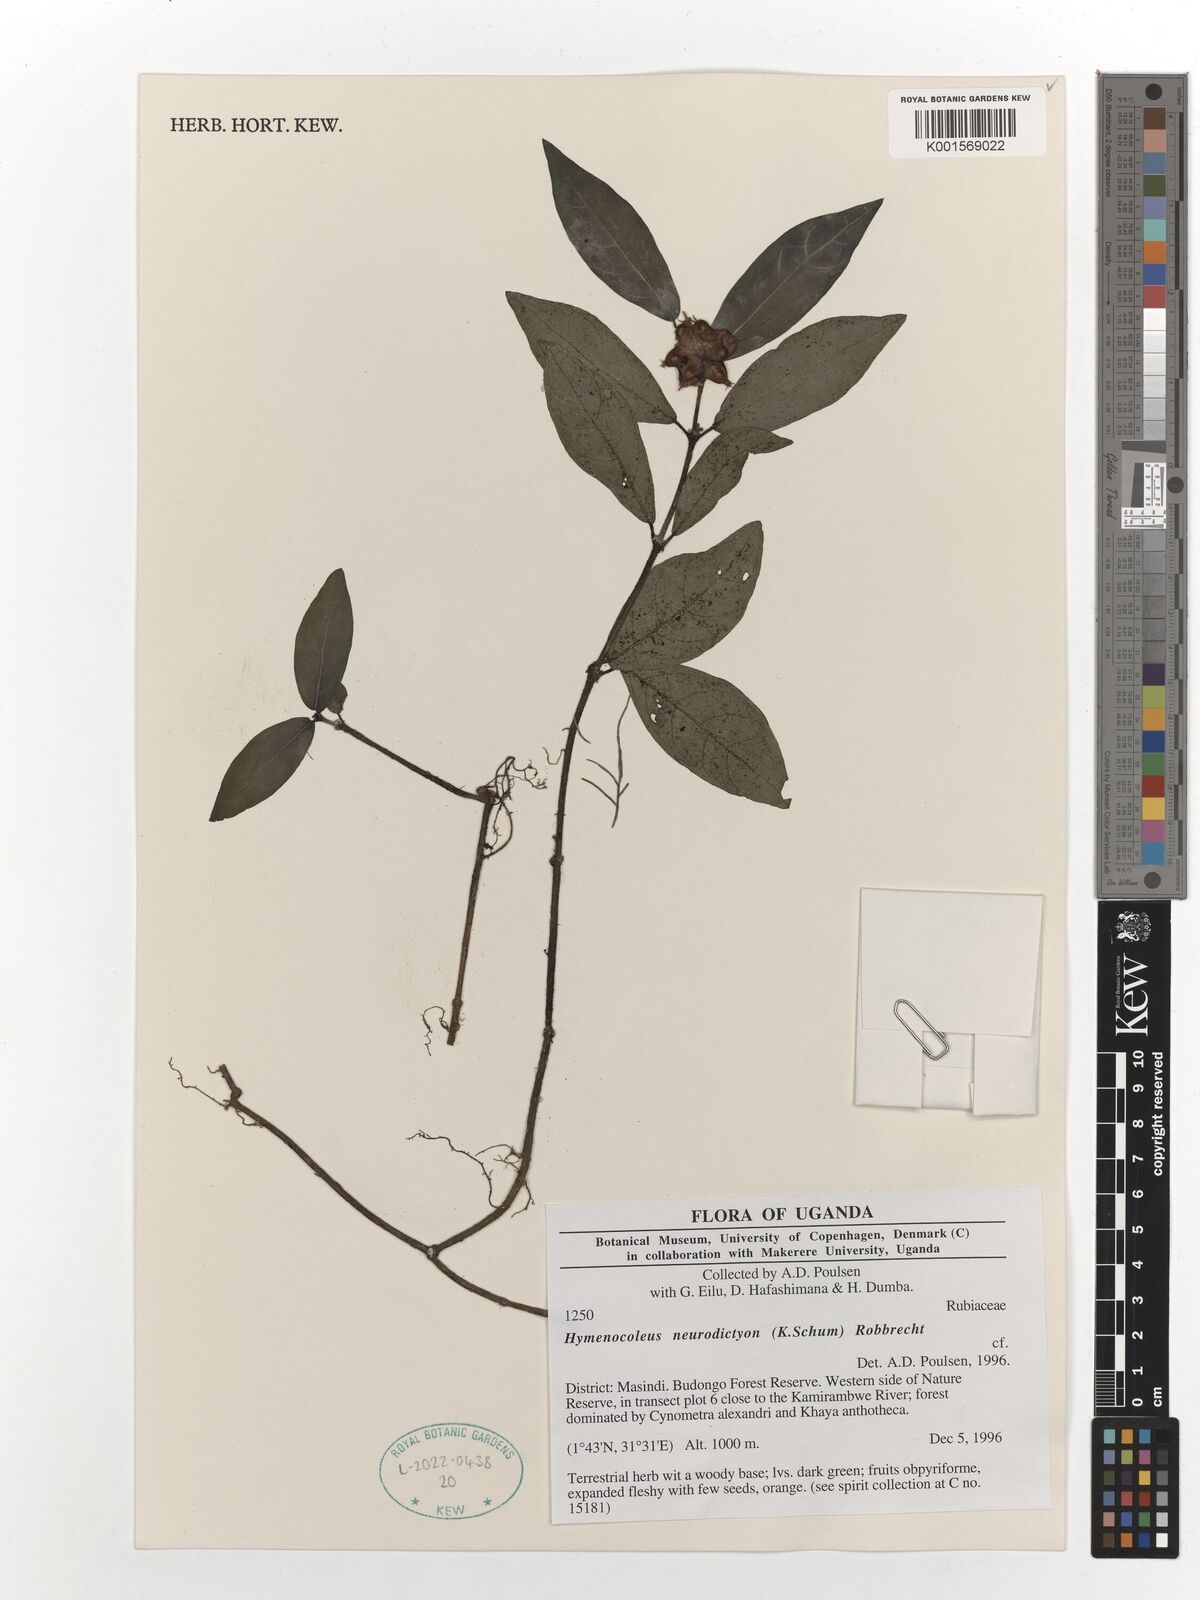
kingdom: Plantae
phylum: Tracheophyta
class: Magnoliopsida
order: Gentianales
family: Rubiaceae
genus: Hymenocoleus
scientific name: Hymenocoleus neurodictyon
